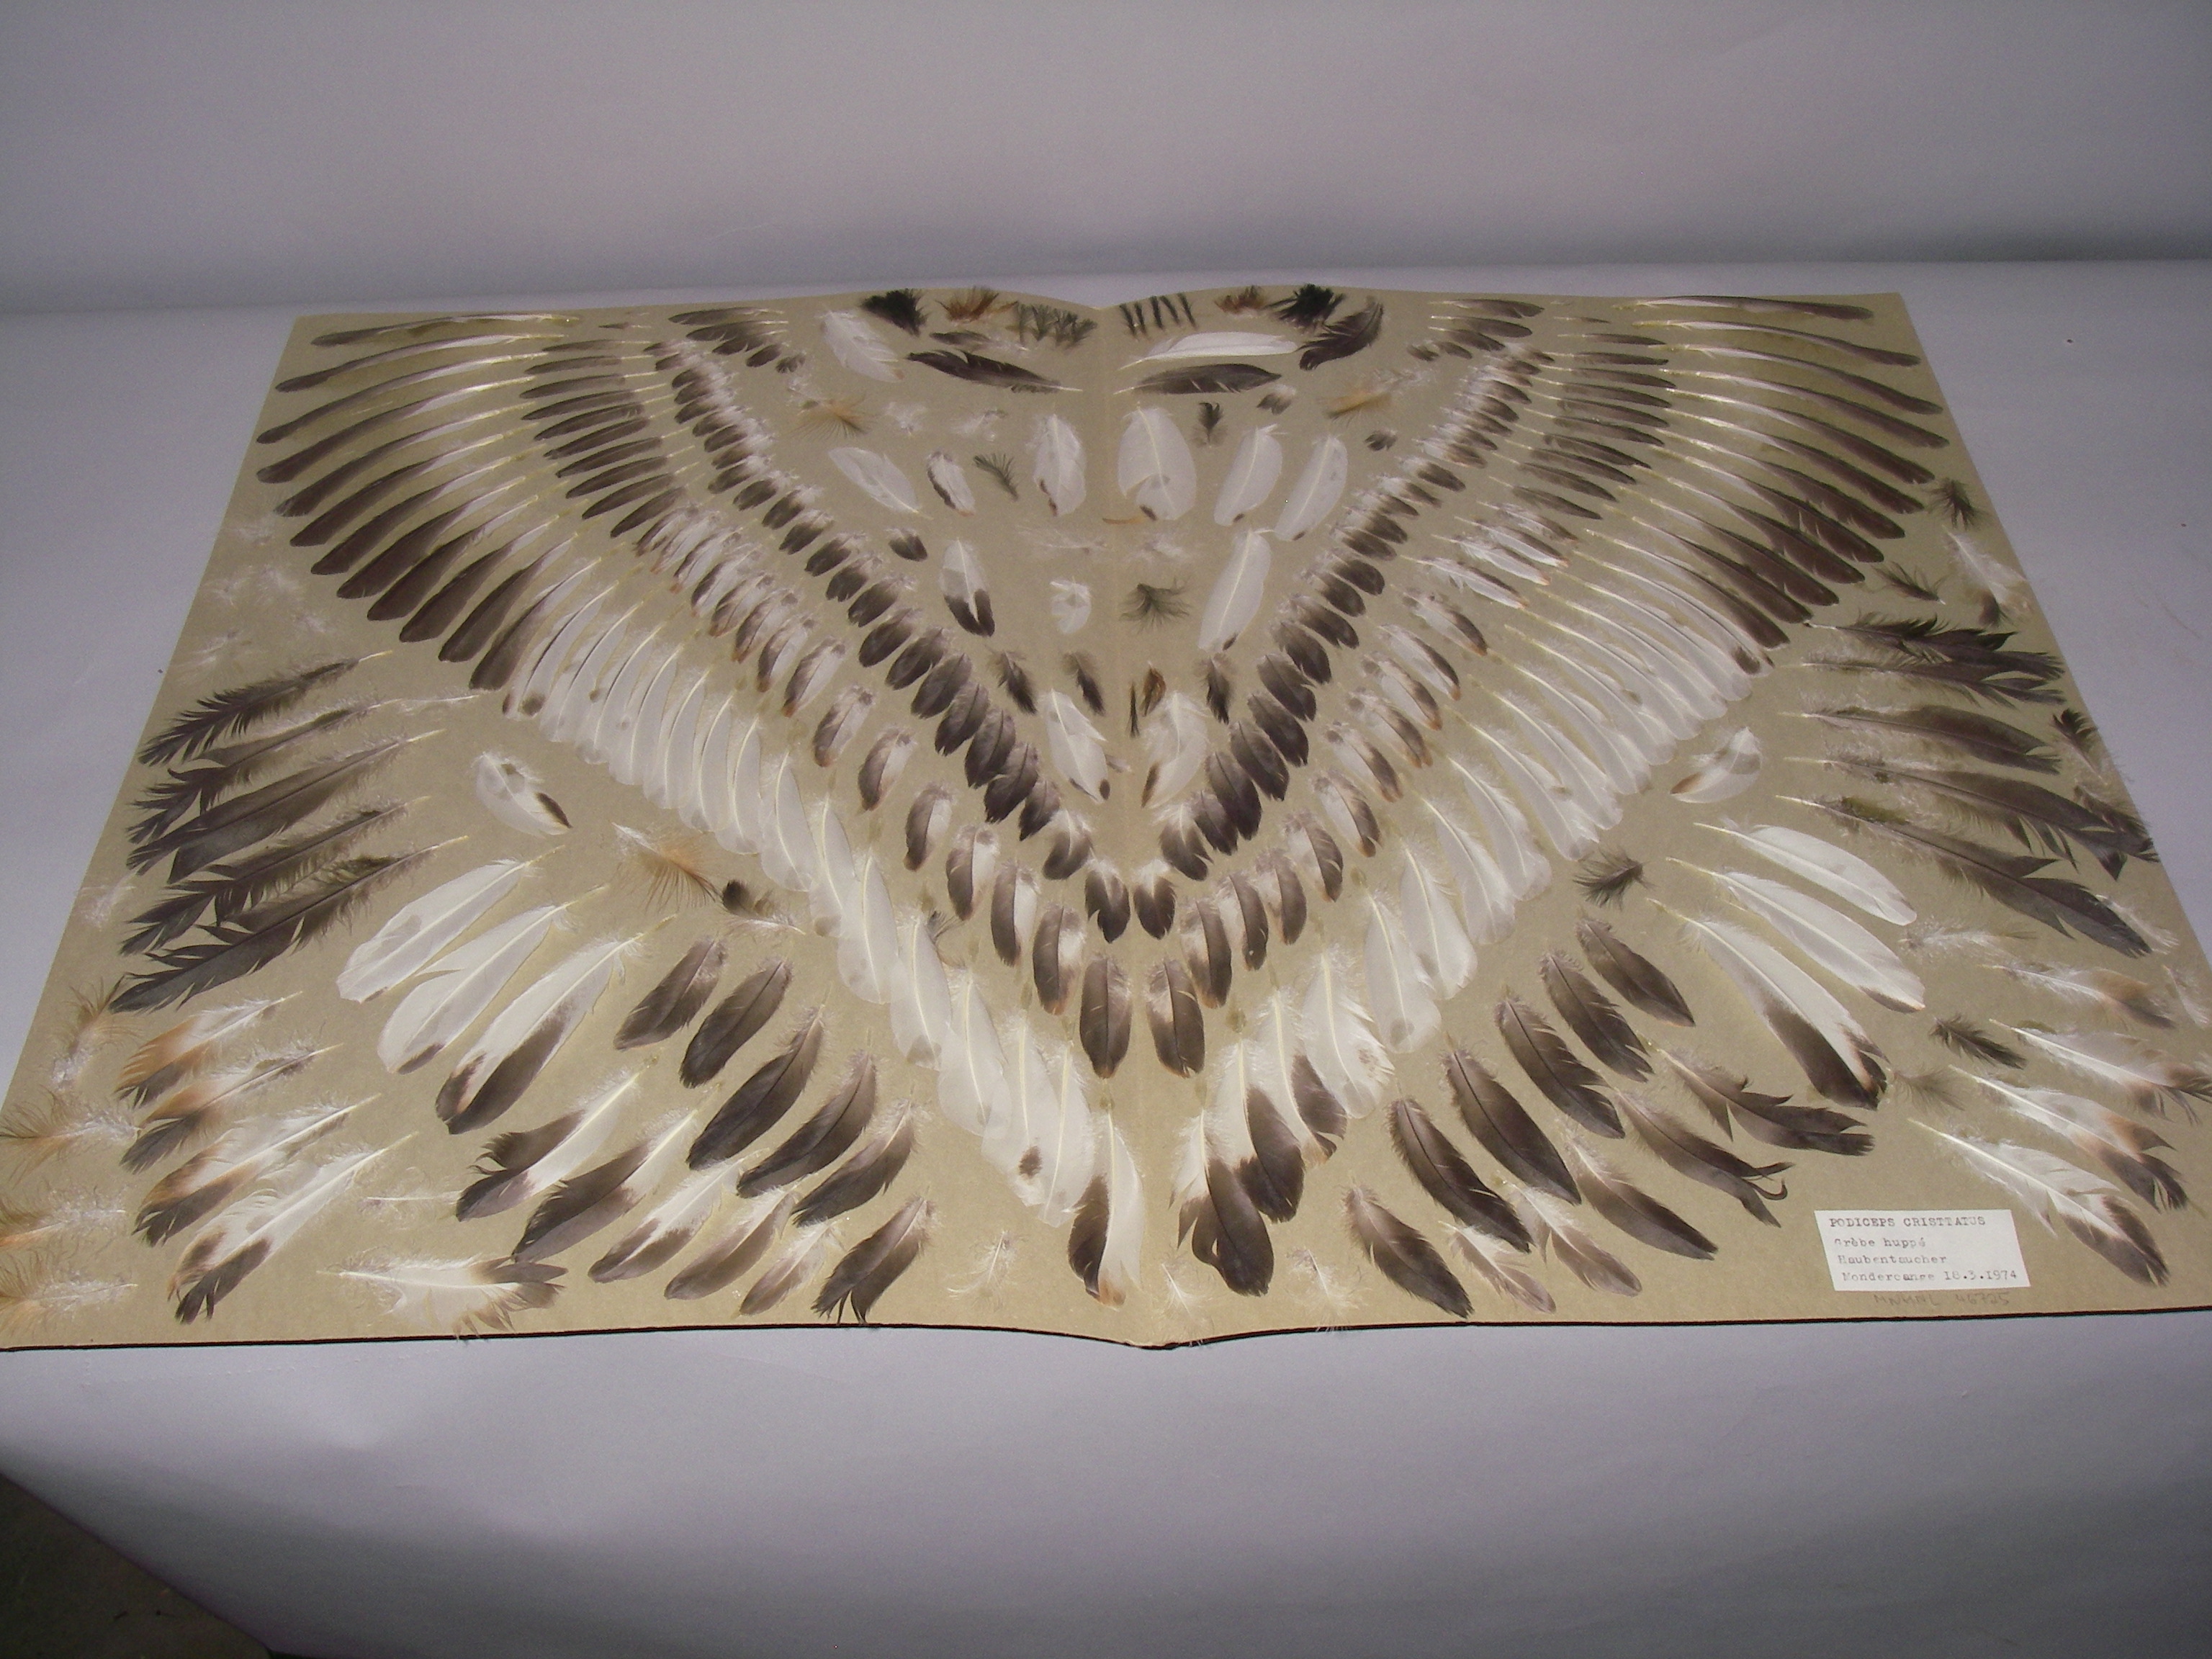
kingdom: Animalia
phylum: Chordata
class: Aves
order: Podicipediformes
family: Podicipedidae
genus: Podiceps
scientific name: Podiceps cristatus
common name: Great crested grebe
